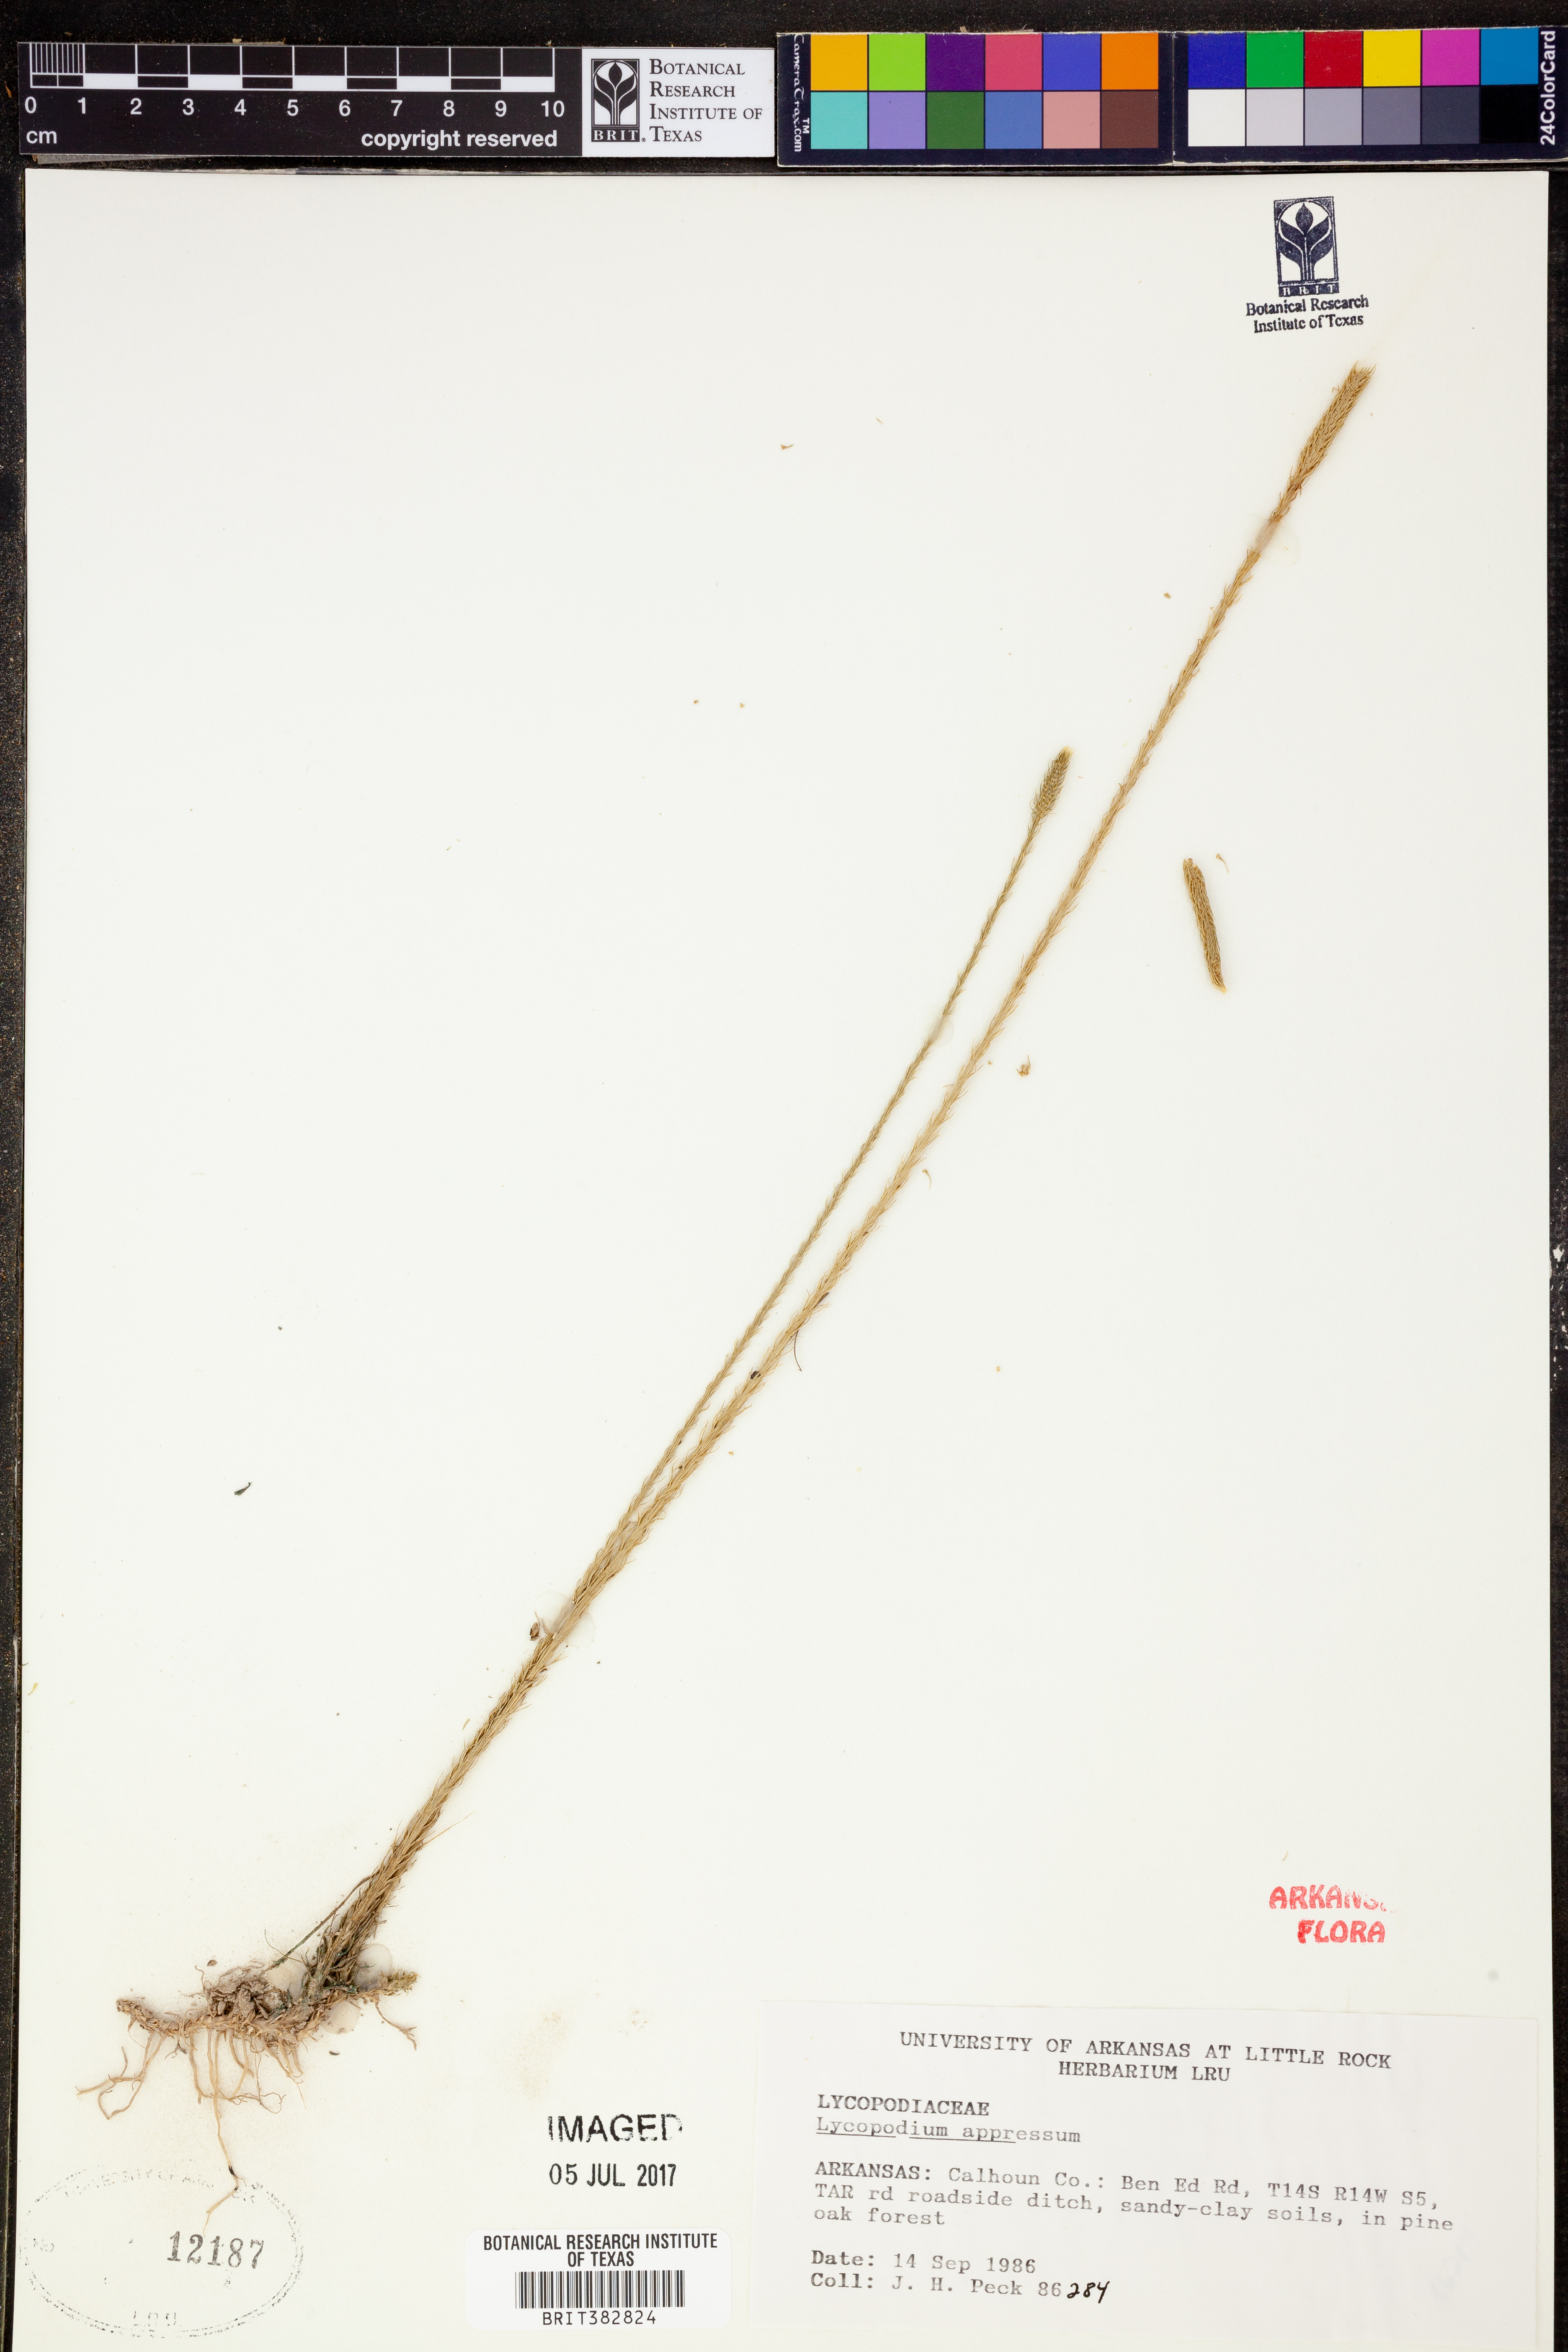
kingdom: Plantae
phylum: Tracheophyta
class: Lycopodiopsida
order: Lycopodiales
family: Lycopodiaceae
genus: Lycopodiella
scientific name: Lycopodiella appressa
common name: Appressed bog clubmoss
